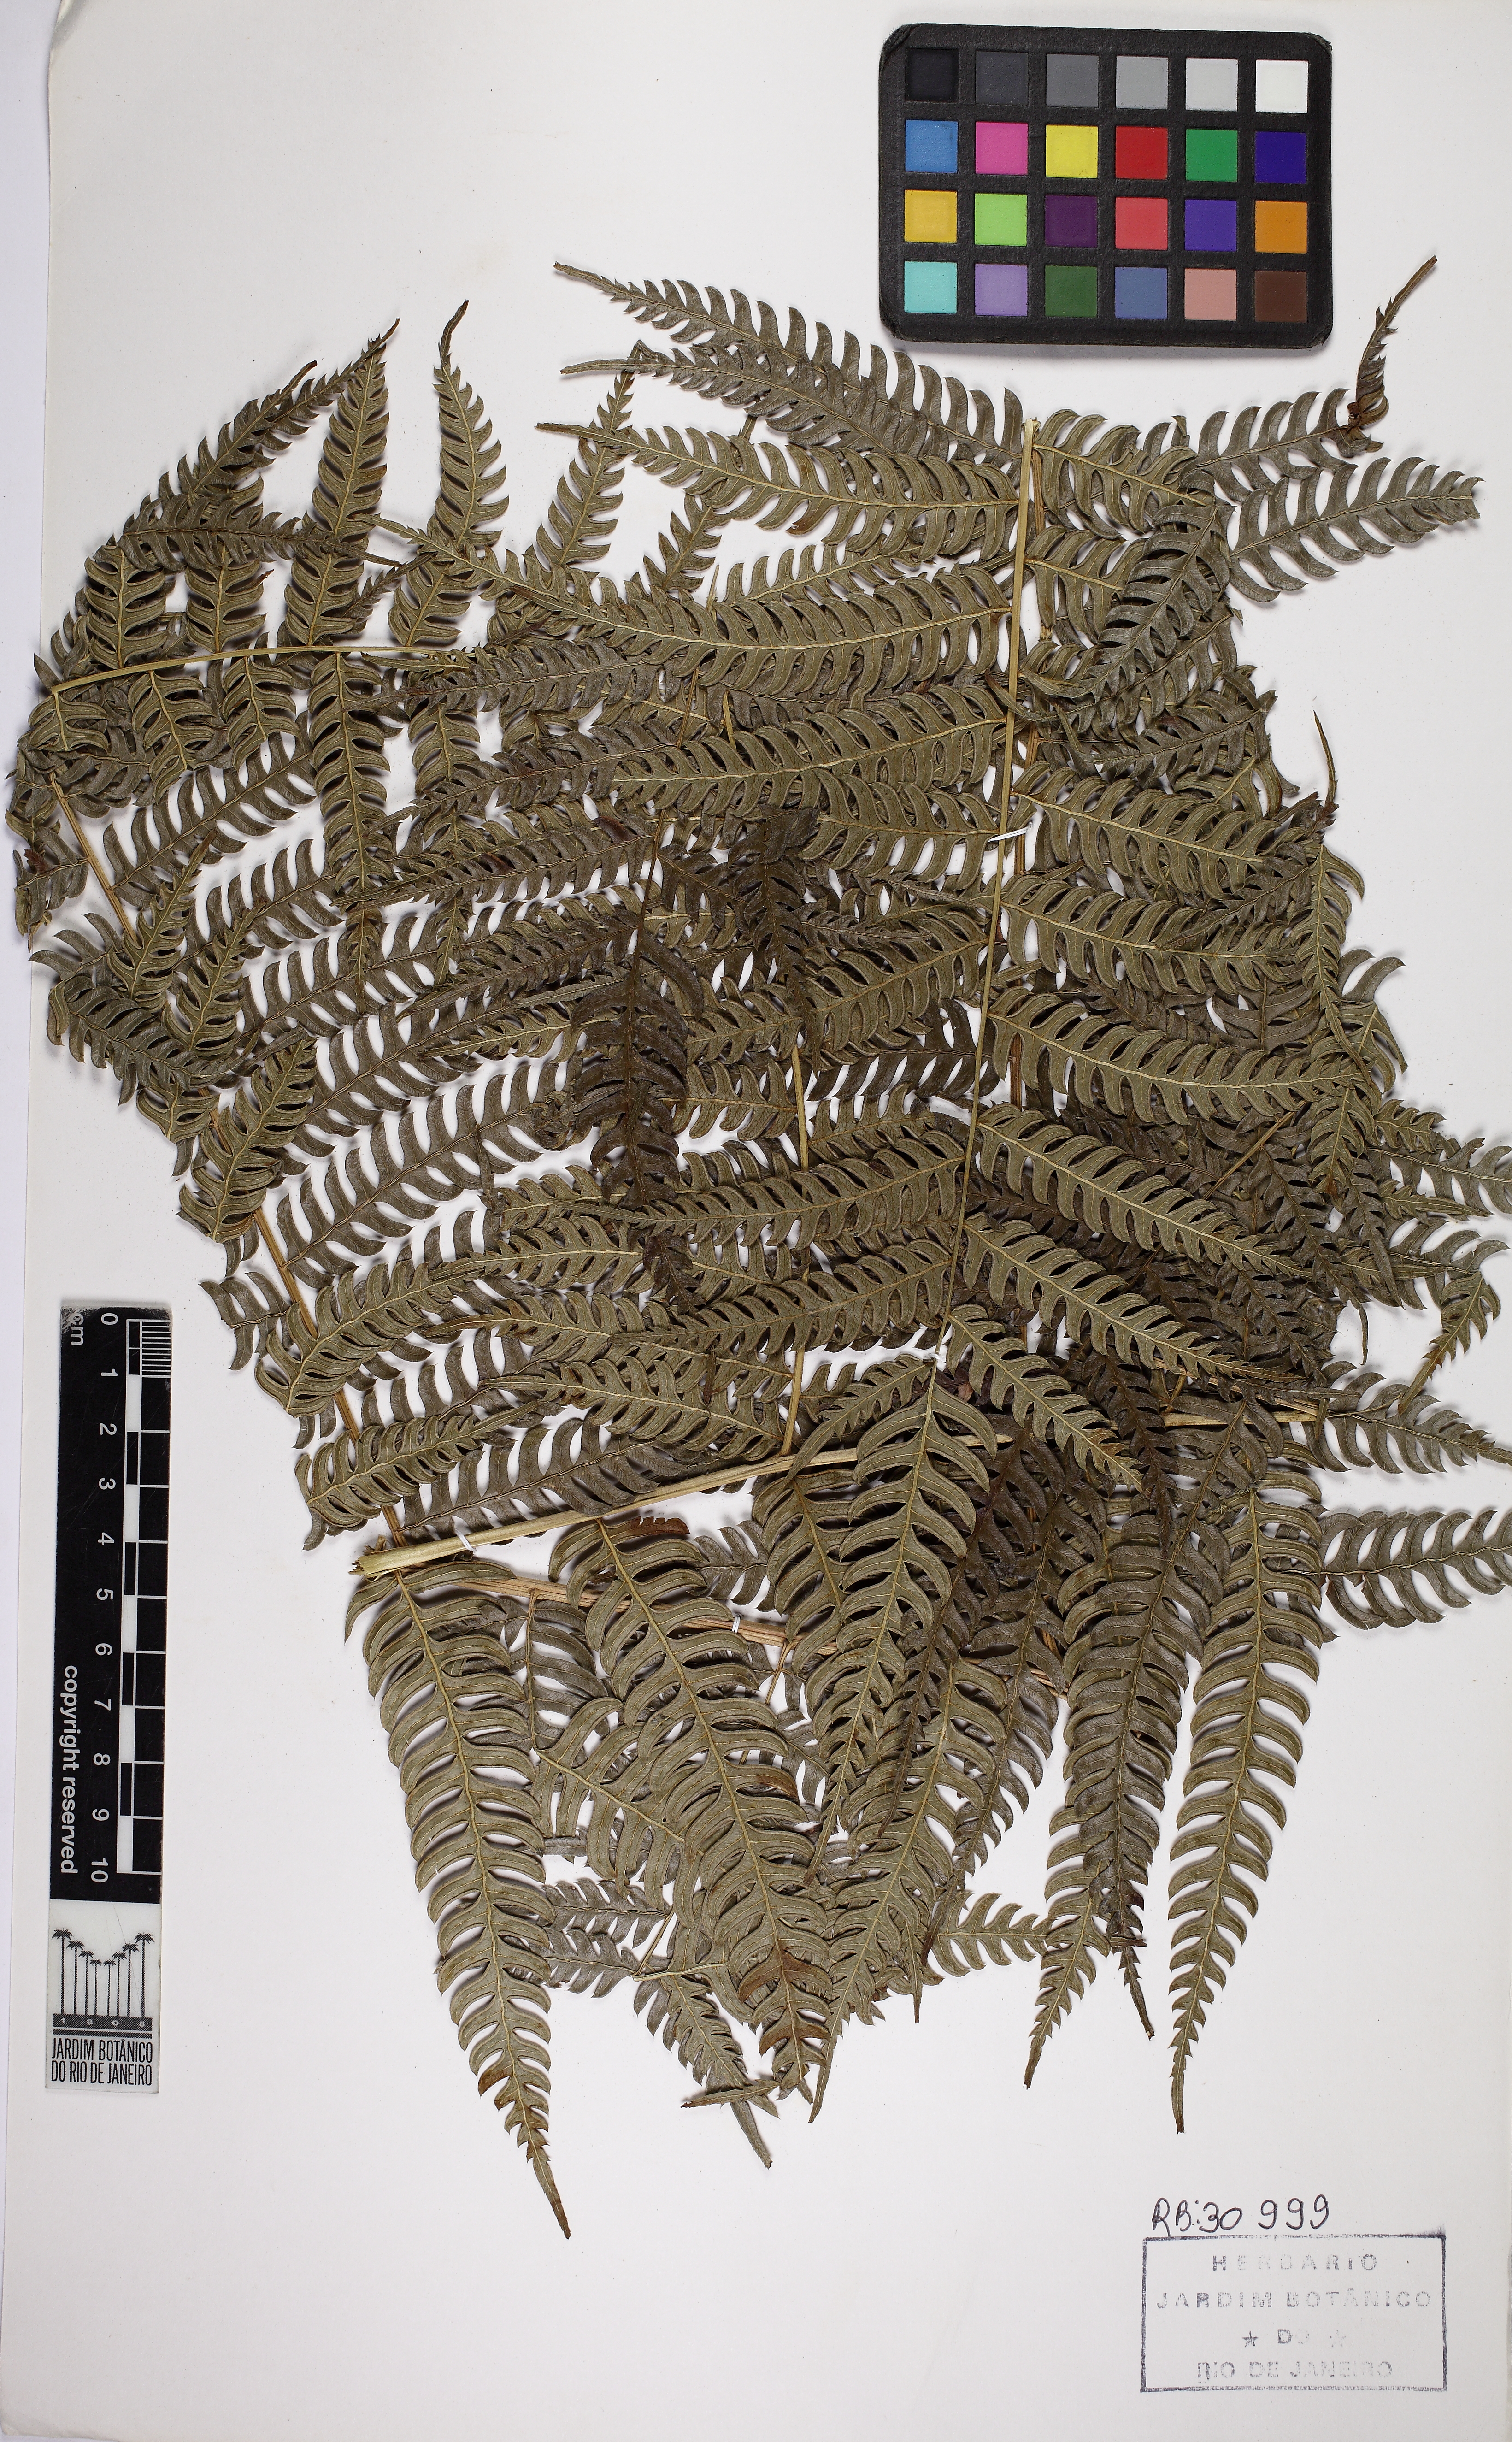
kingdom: Plantae
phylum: Tracheophyta
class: Polypodiopsida
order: Polypodiales
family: Pteridaceae
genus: Pteris
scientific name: Pteris deflexa
